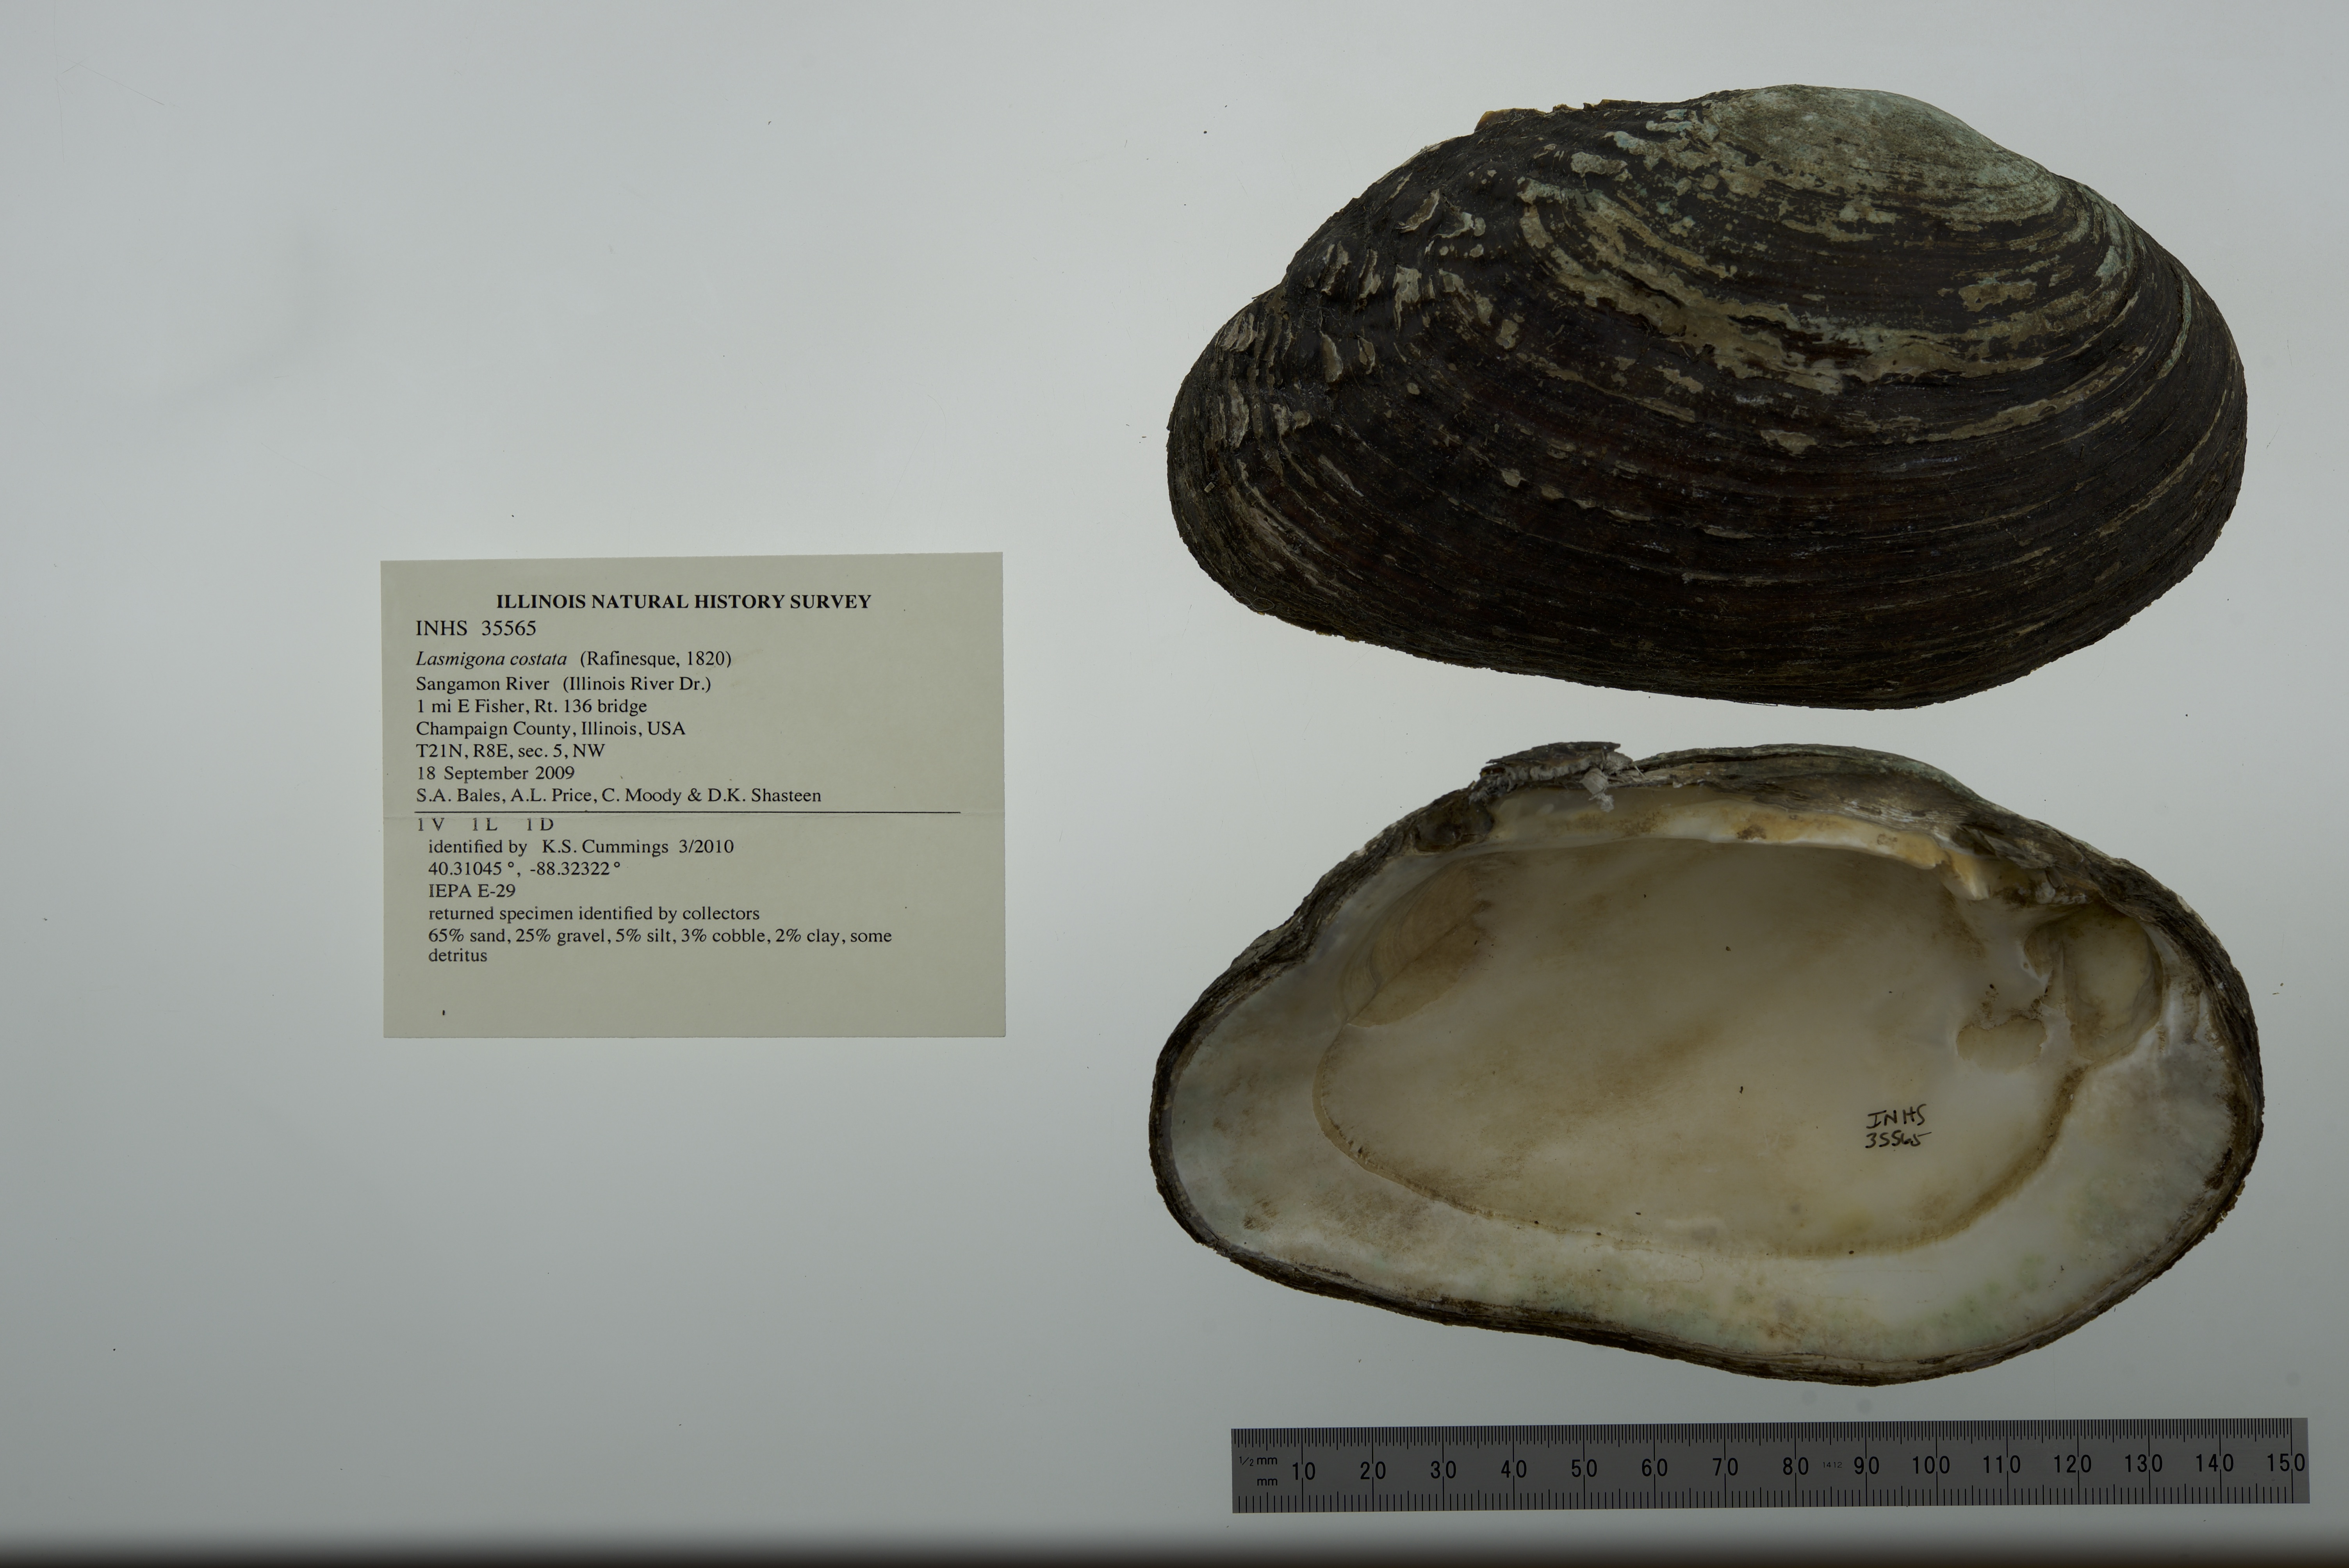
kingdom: Animalia
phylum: Mollusca
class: Bivalvia
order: Unionida
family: Unionidae
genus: Lasmigona
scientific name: Lasmigona costata
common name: Flutedshell
